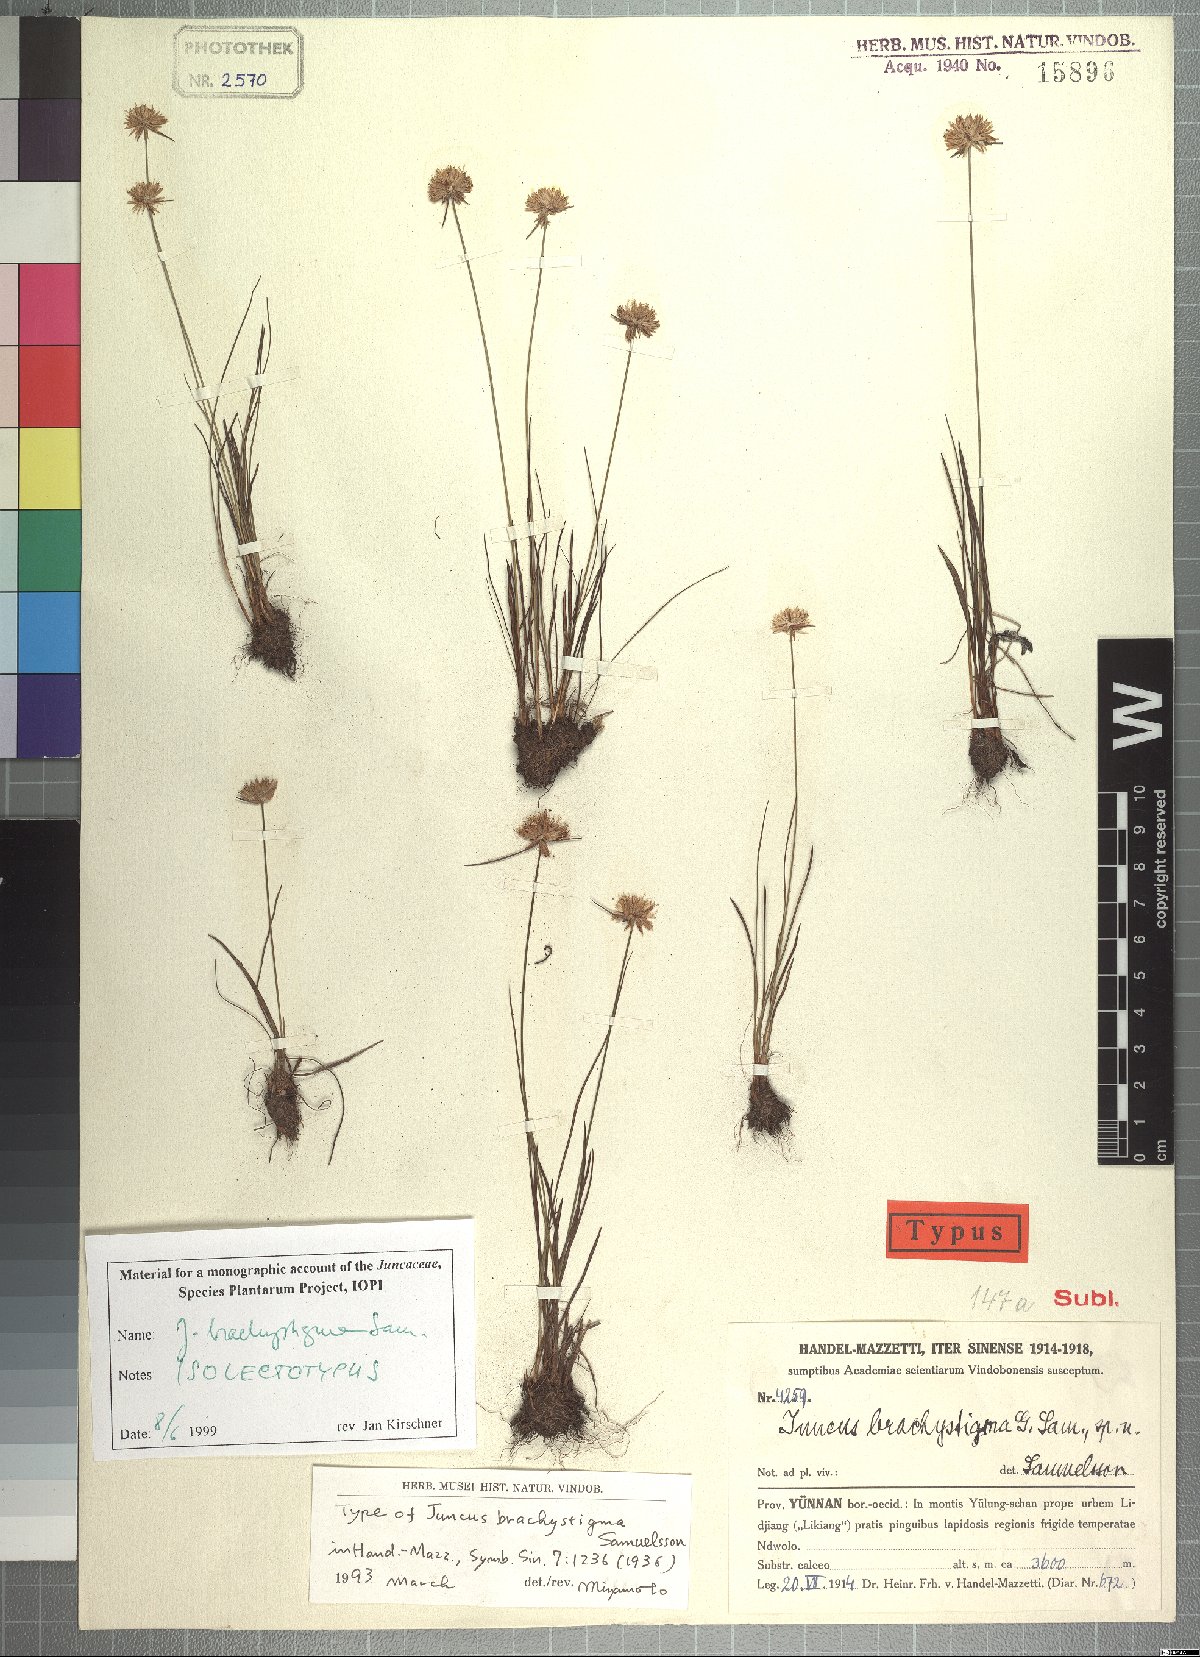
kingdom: Plantae
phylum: Tracheophyta
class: Liliopsida
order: Poales
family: Juncaceae
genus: Juncus
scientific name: Juncus brachystigma
